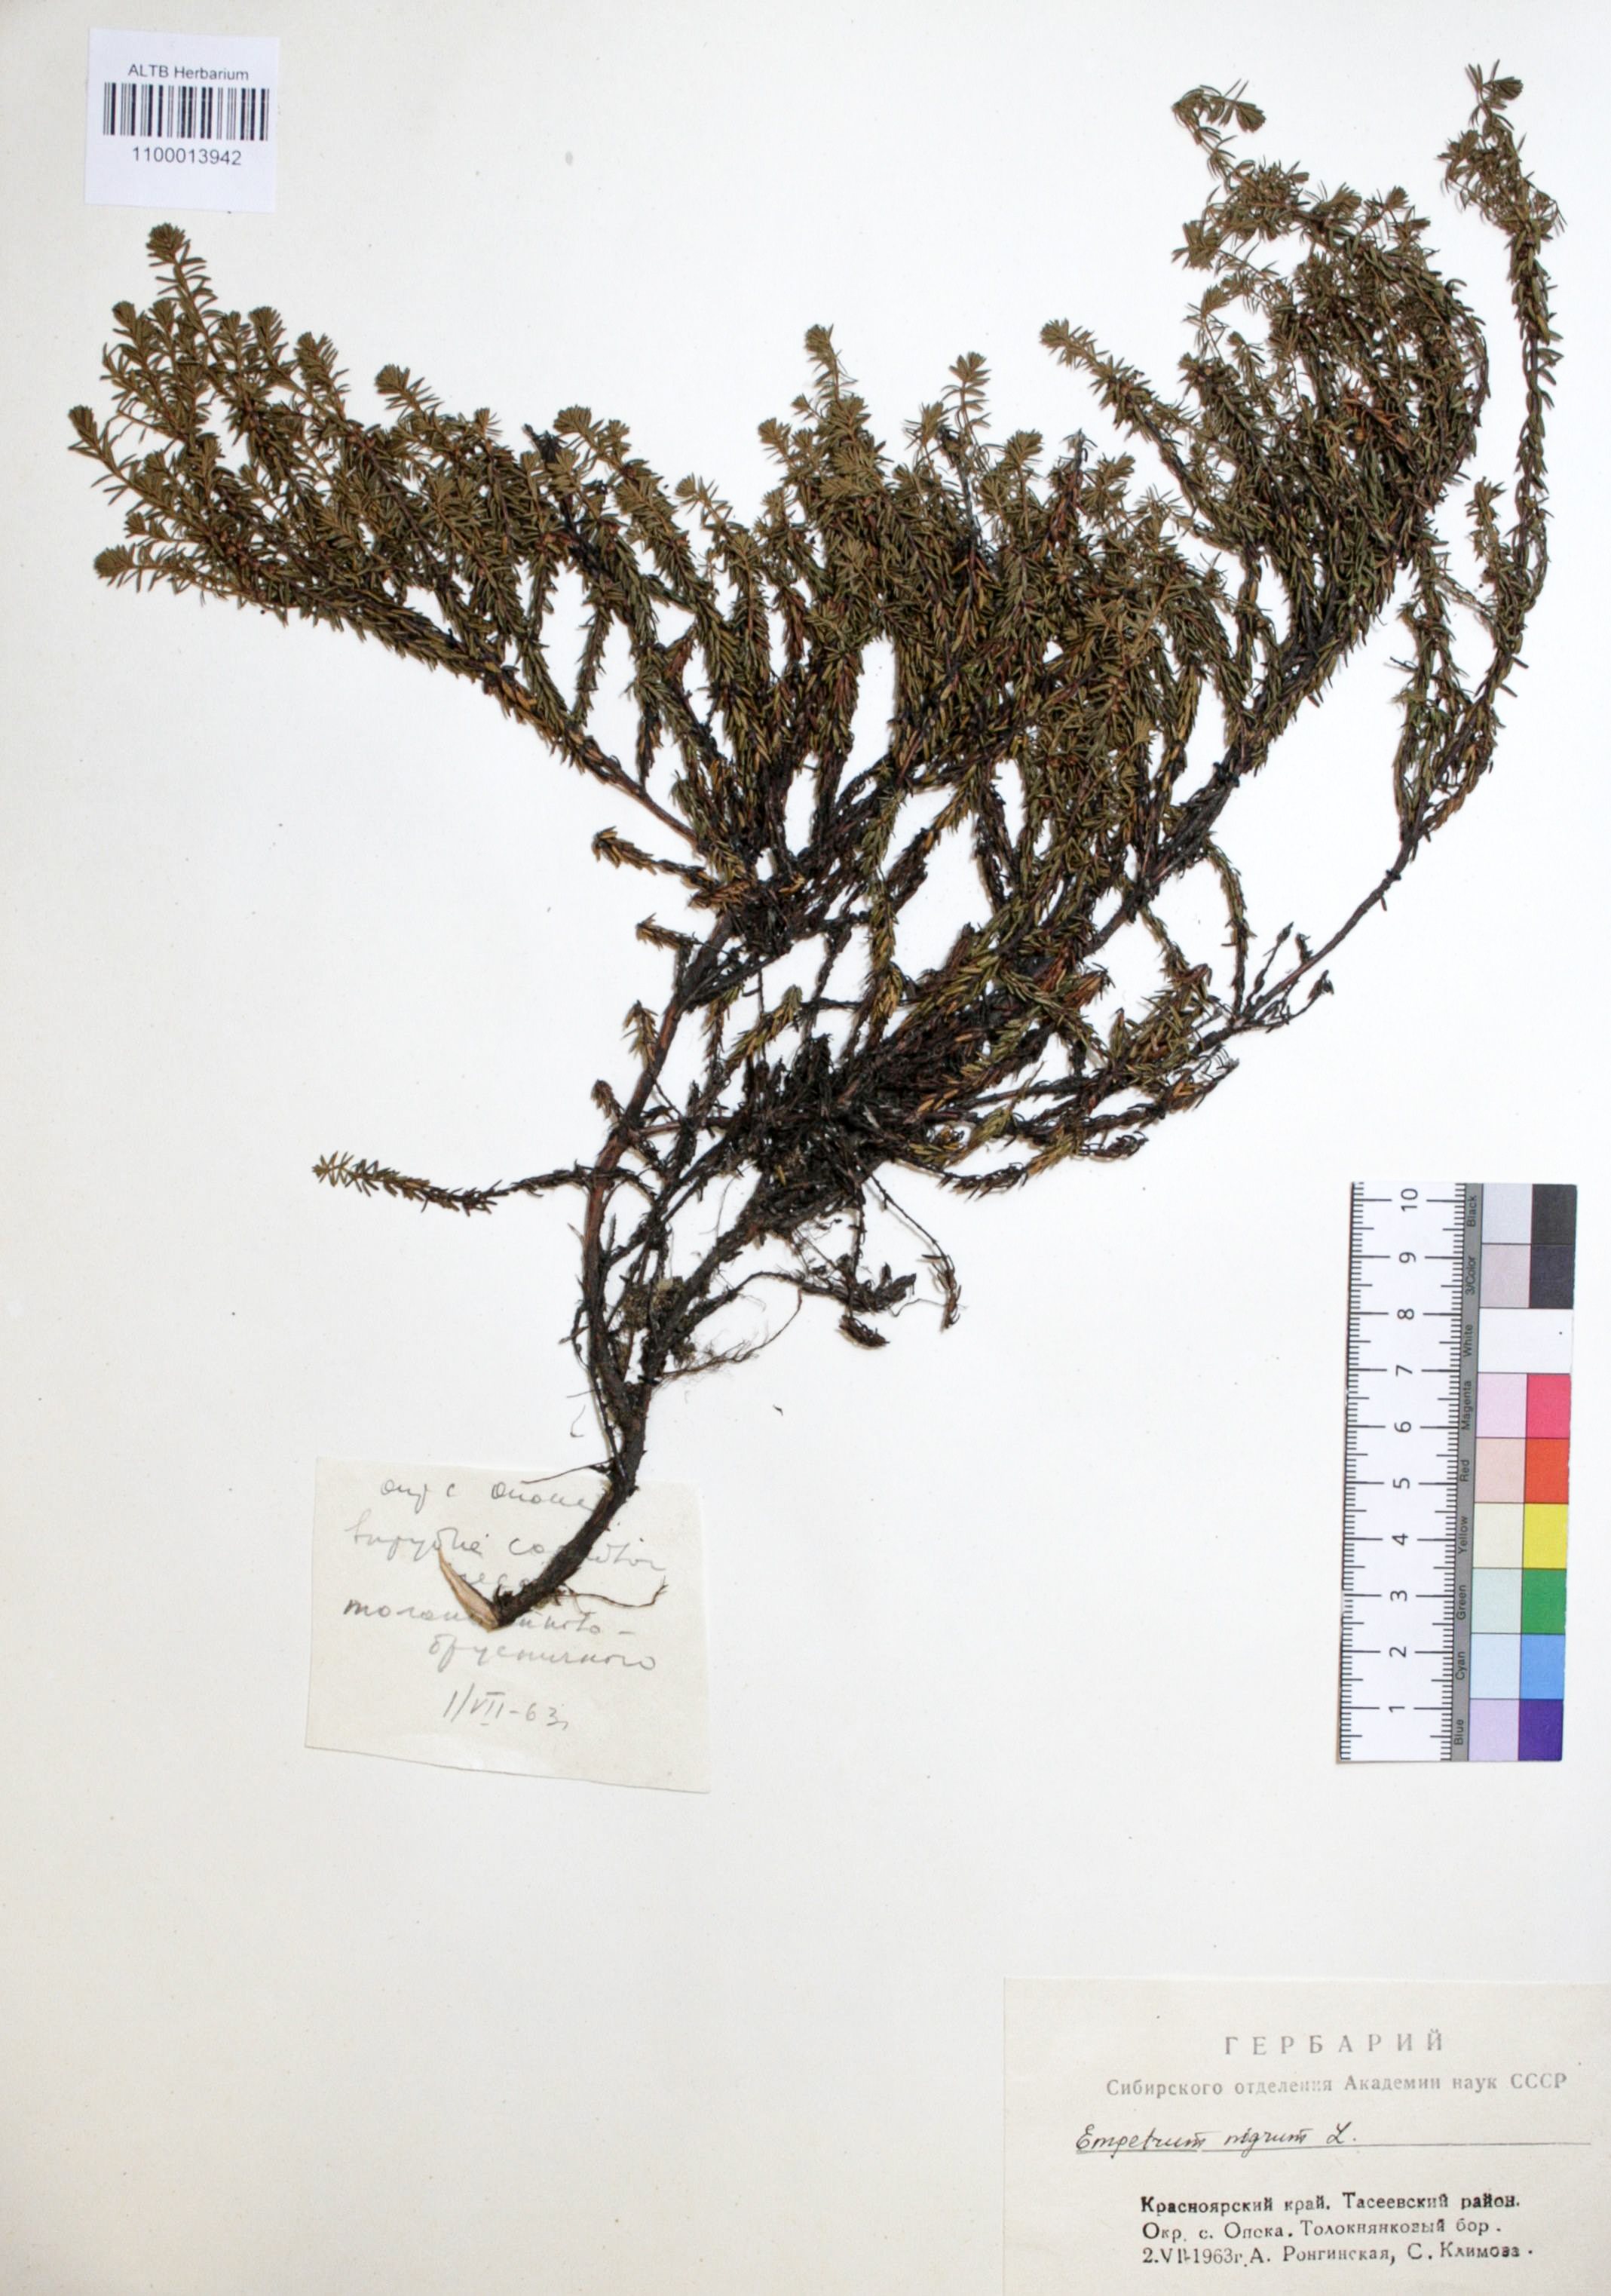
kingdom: Plantae
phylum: Tracheophyta
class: Magnoliopsida
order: Ericales
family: Ericaceae
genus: Empetrum
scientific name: Empetrum nigrum
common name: Black crowberry
